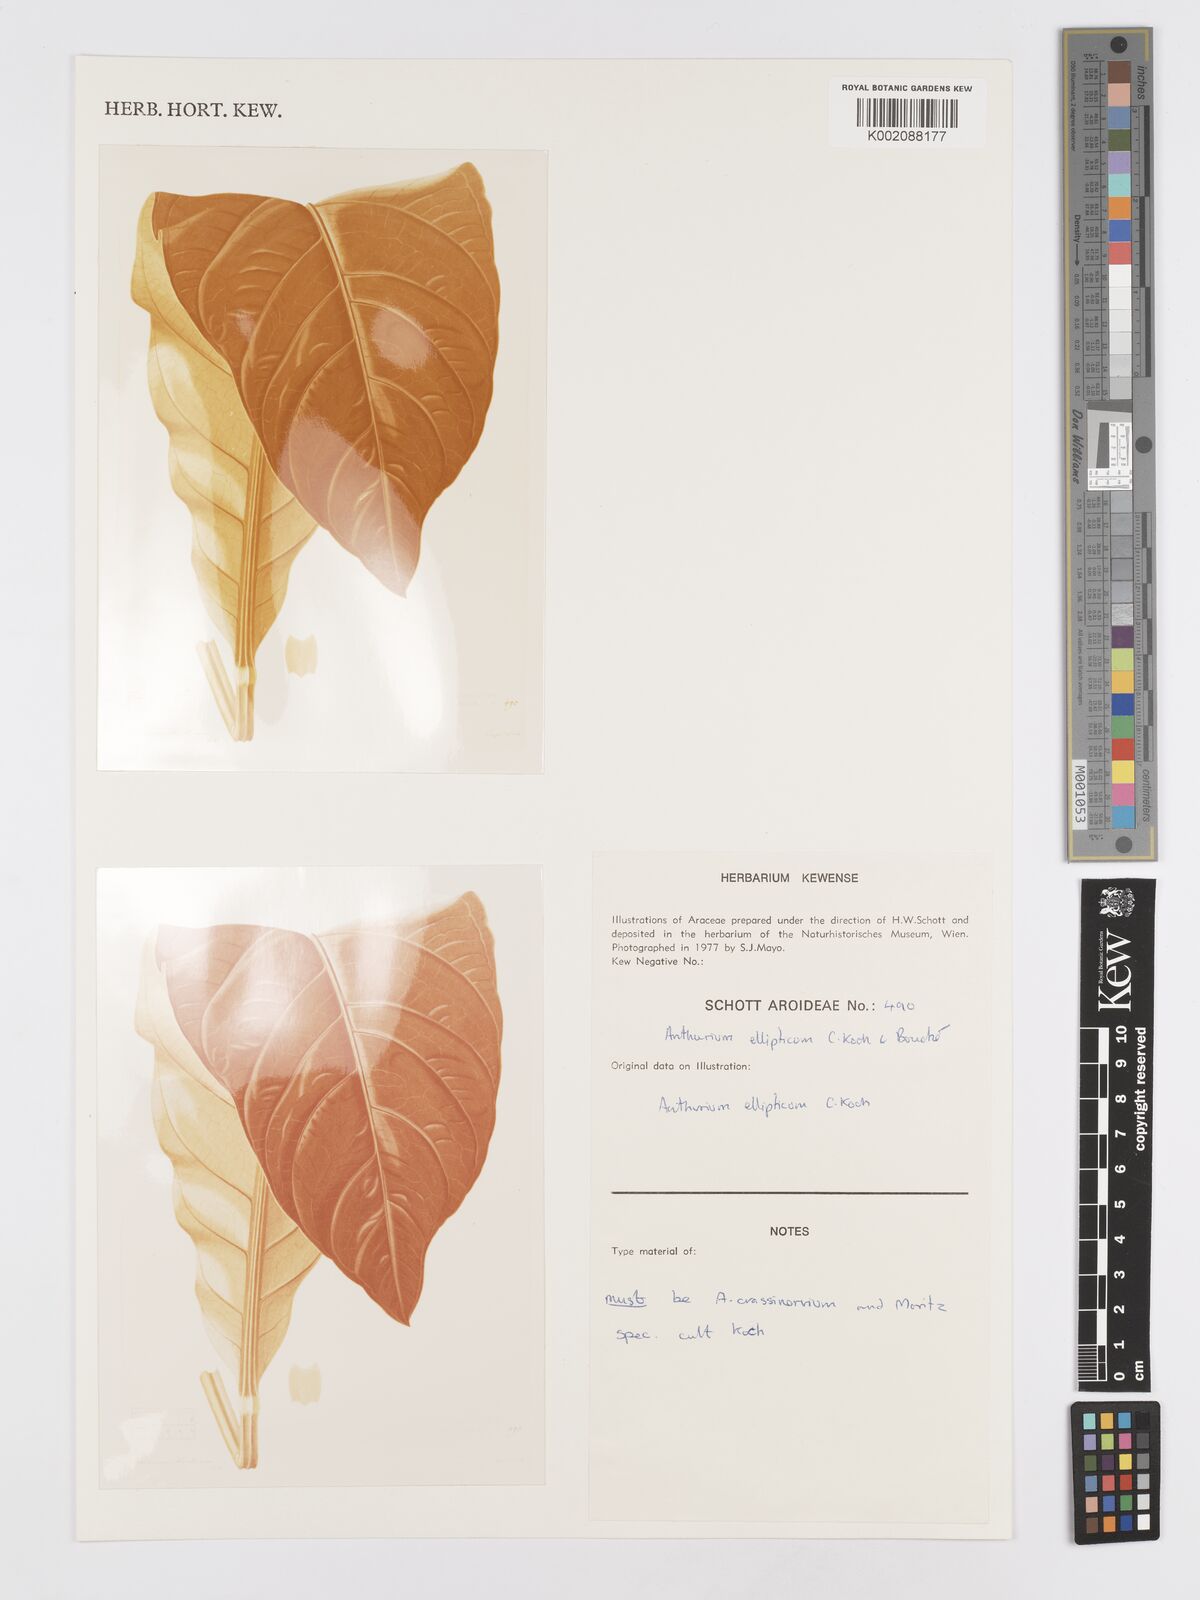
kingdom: Plantae
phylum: Tracheophyta
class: Liliopsida
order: Alismatales
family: Araceae
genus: Anthurium
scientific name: Anthurium crassinervium
